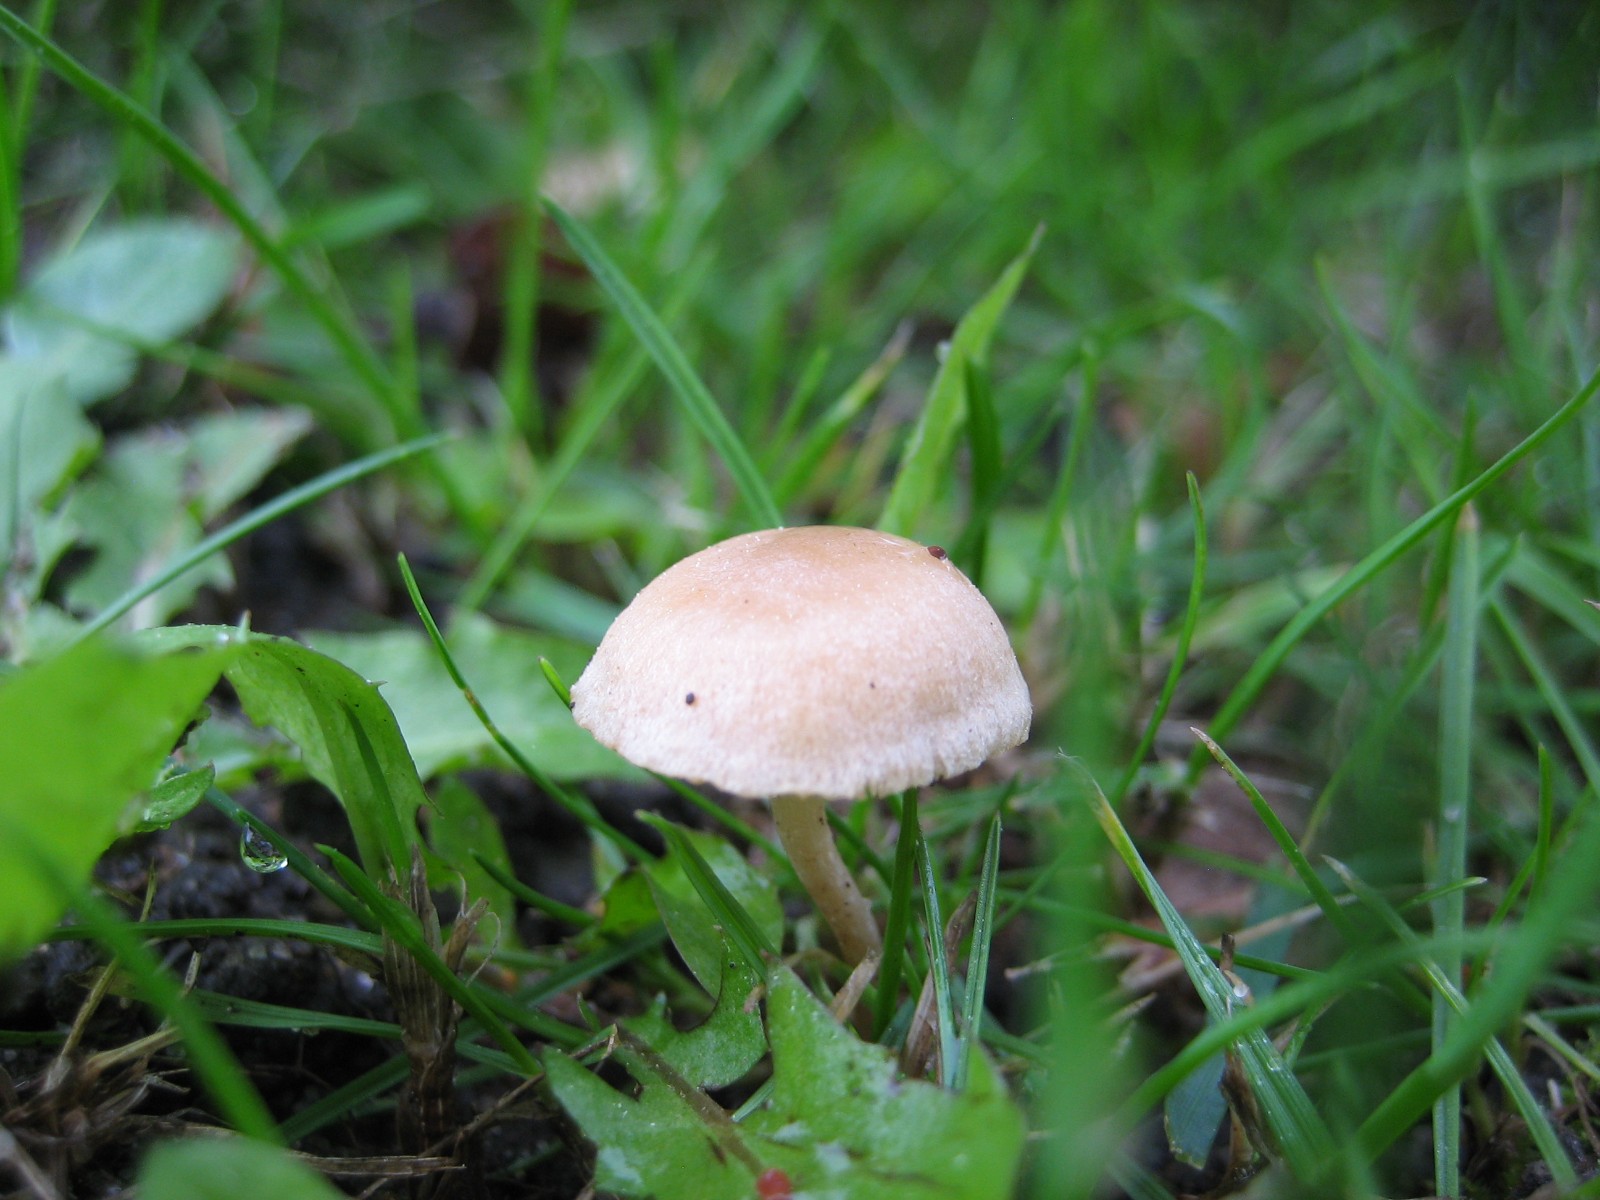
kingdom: Fungi
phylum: Basidiomycota
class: Agaricomycetes
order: Agaricales
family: Tubariaceae
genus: Tubaria
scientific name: Tubaria dispersa
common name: tjørne-fnughat
